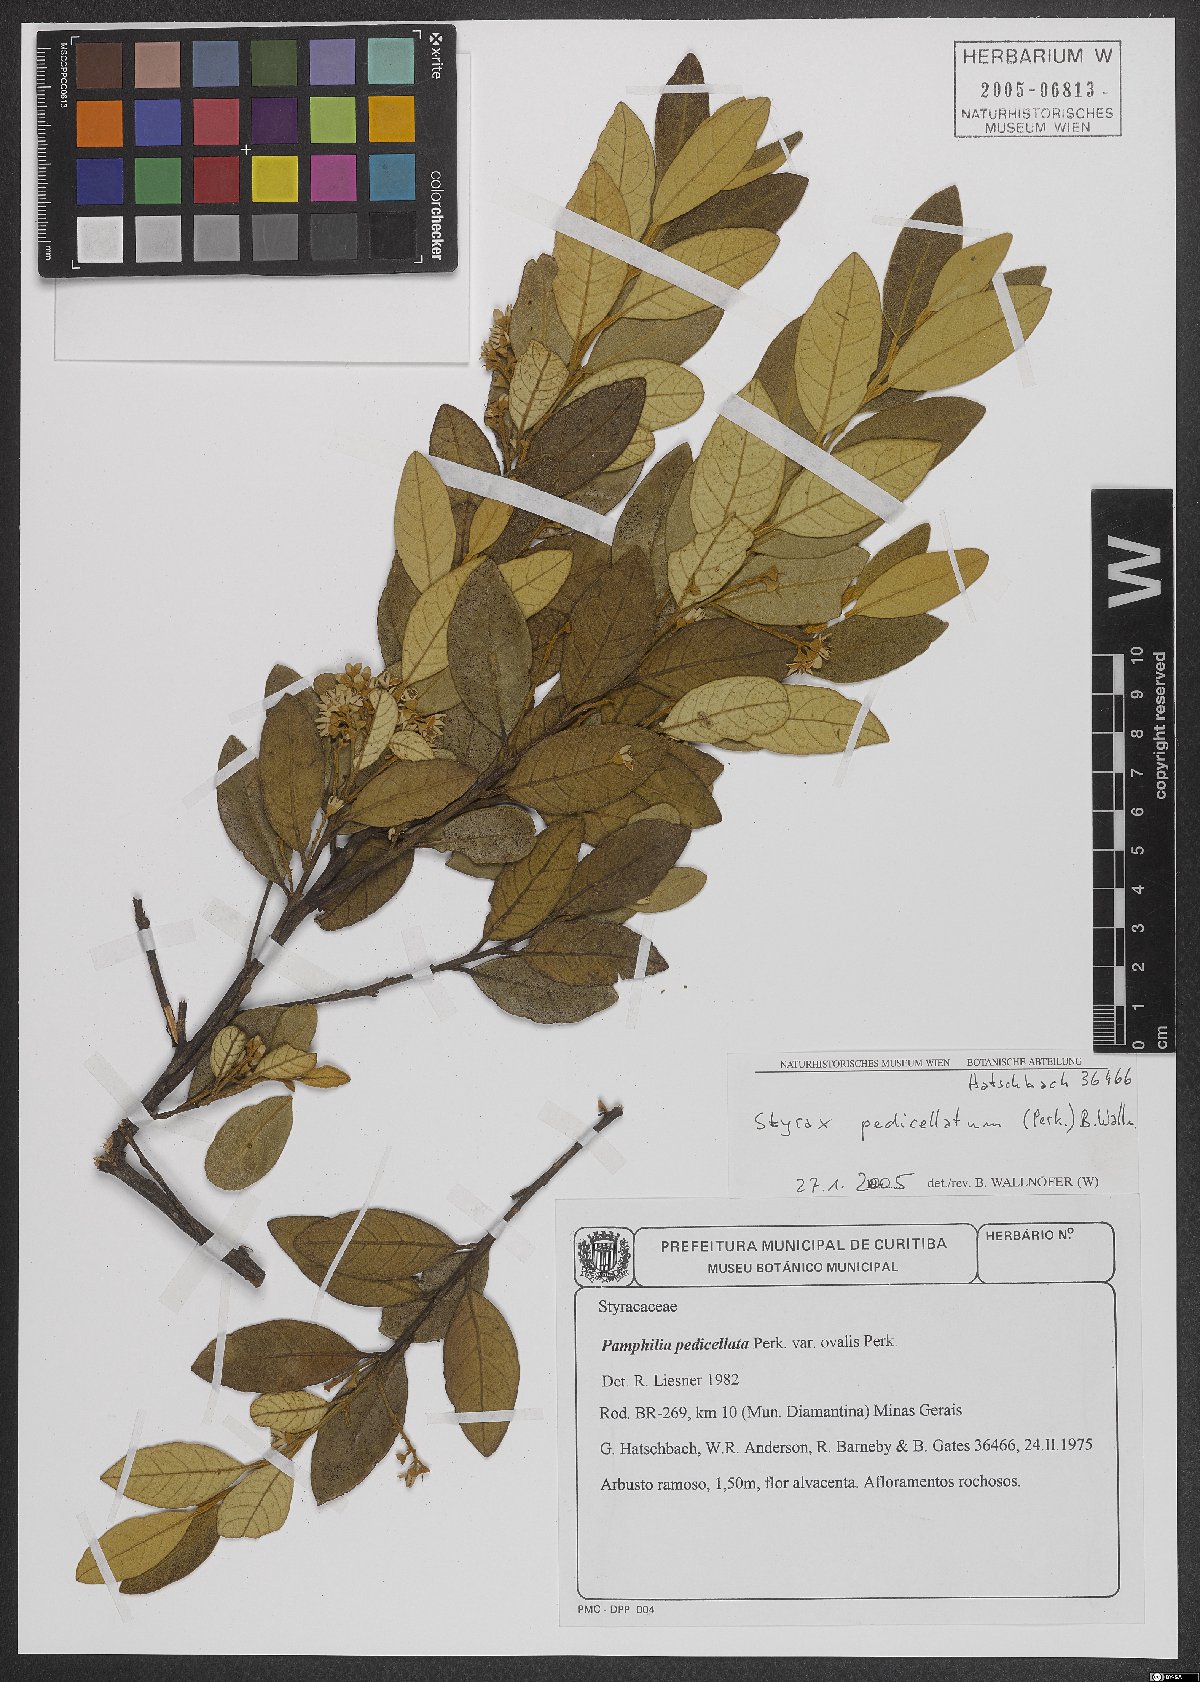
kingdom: Plantae
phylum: Tracheophyta
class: Magnoliopsida
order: Ericales
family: Styracaceae
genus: Styrax
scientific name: Styrax pedicellatus
